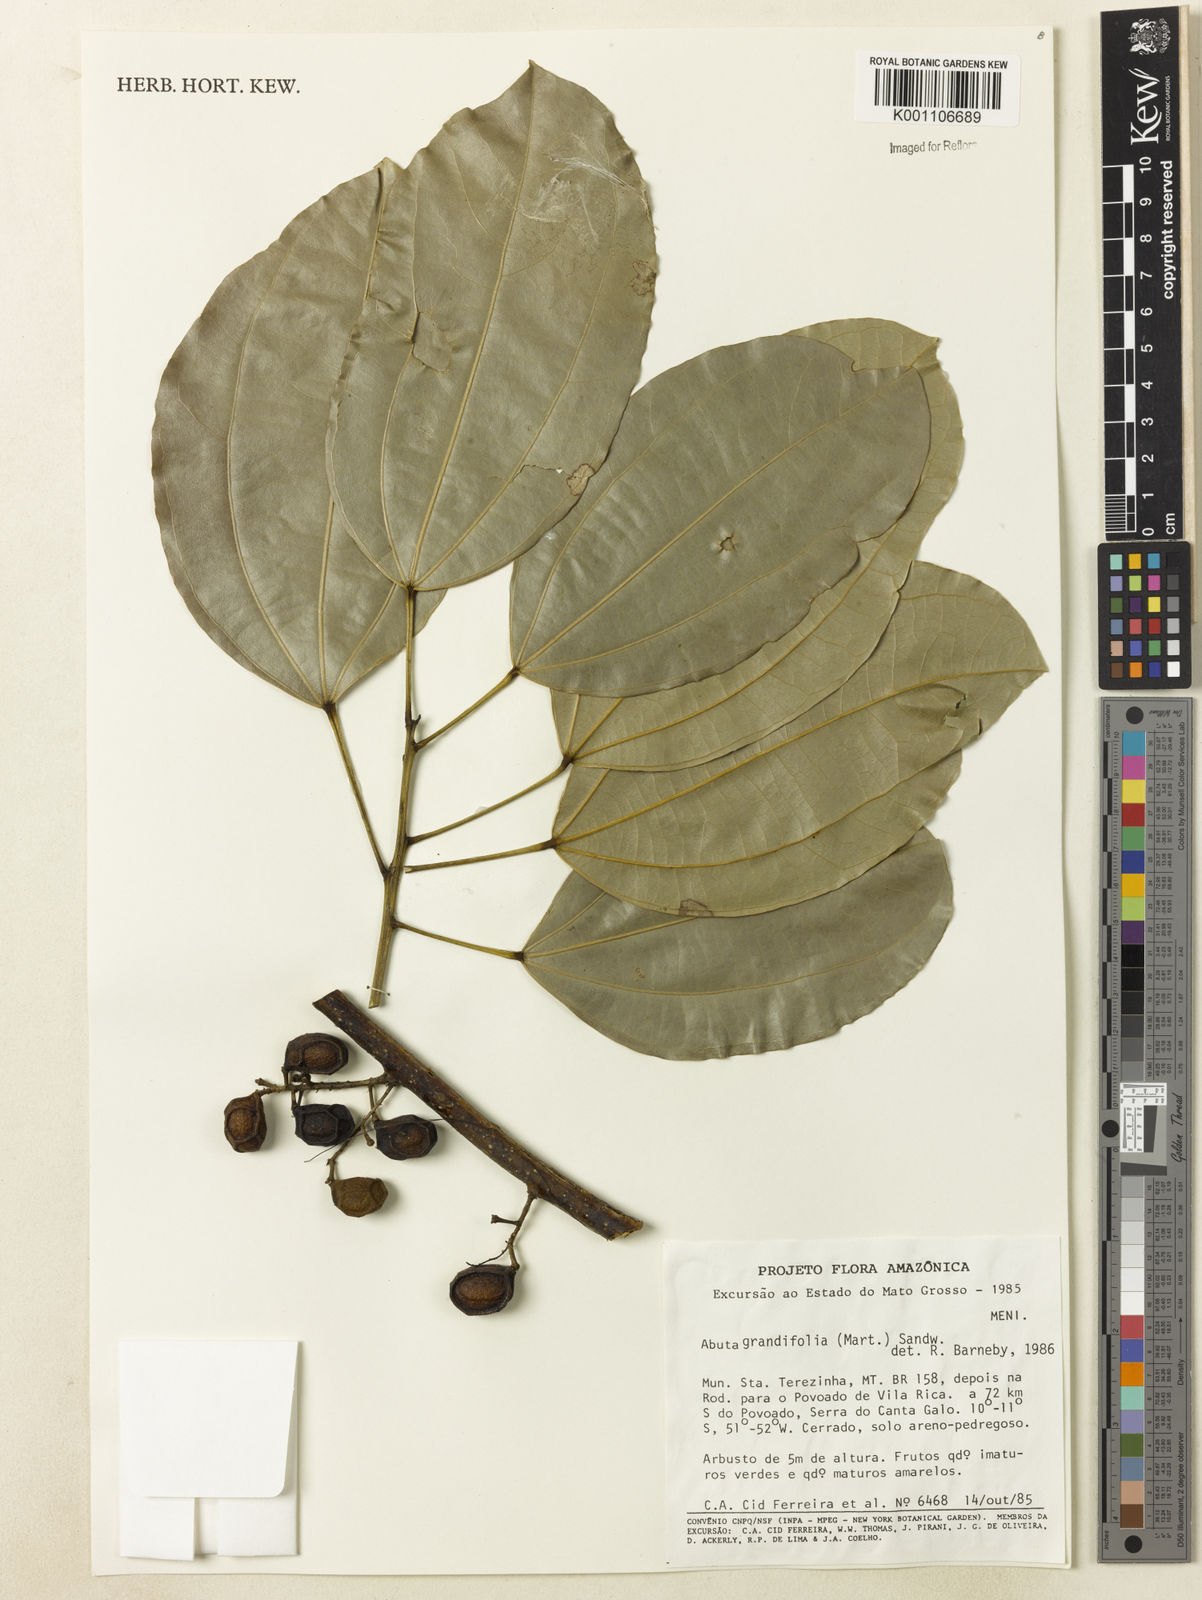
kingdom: Plantae
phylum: Tracheophyta
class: Magnoliopsida
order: Ranunculales
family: Menispermaceae
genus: Abuta
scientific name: Abuta grandifolia
